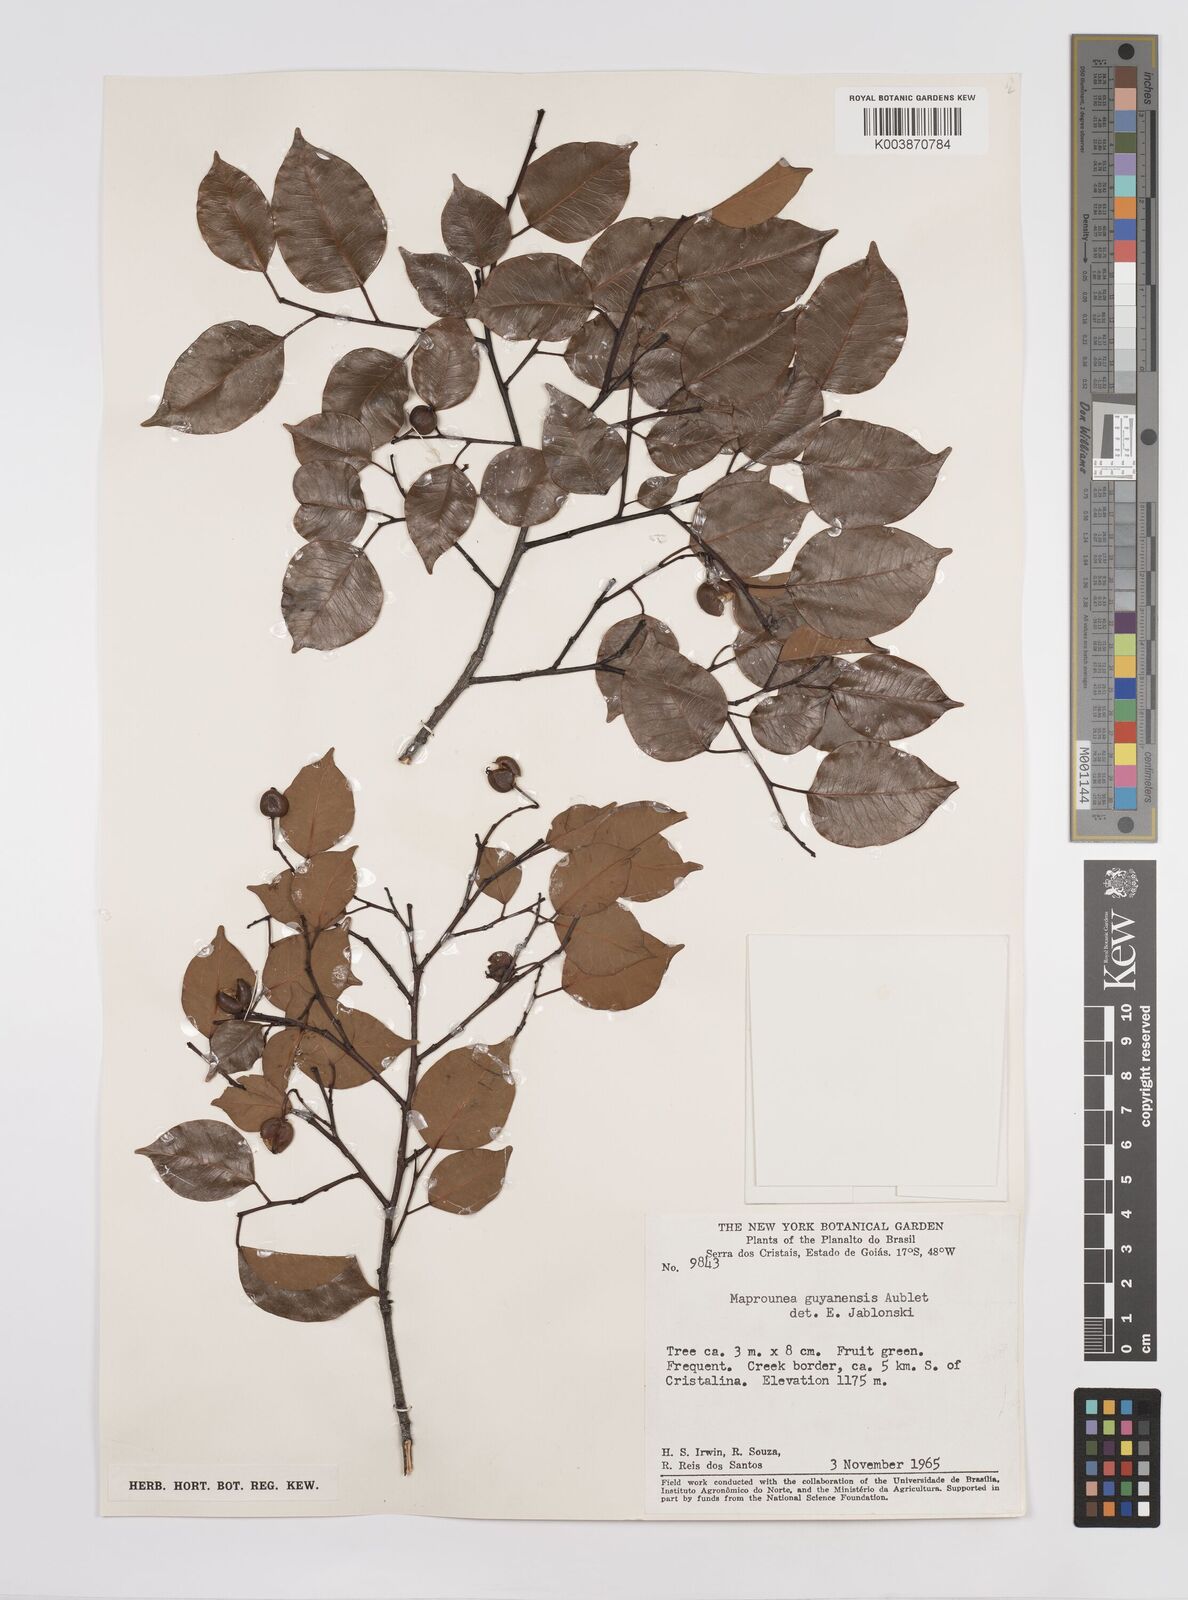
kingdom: Plantae
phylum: Tracheophyta
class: Magnoliopsida
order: Malpighiales
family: Euphorbiaceae
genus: Maprounea
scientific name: Maprounea guianensis
